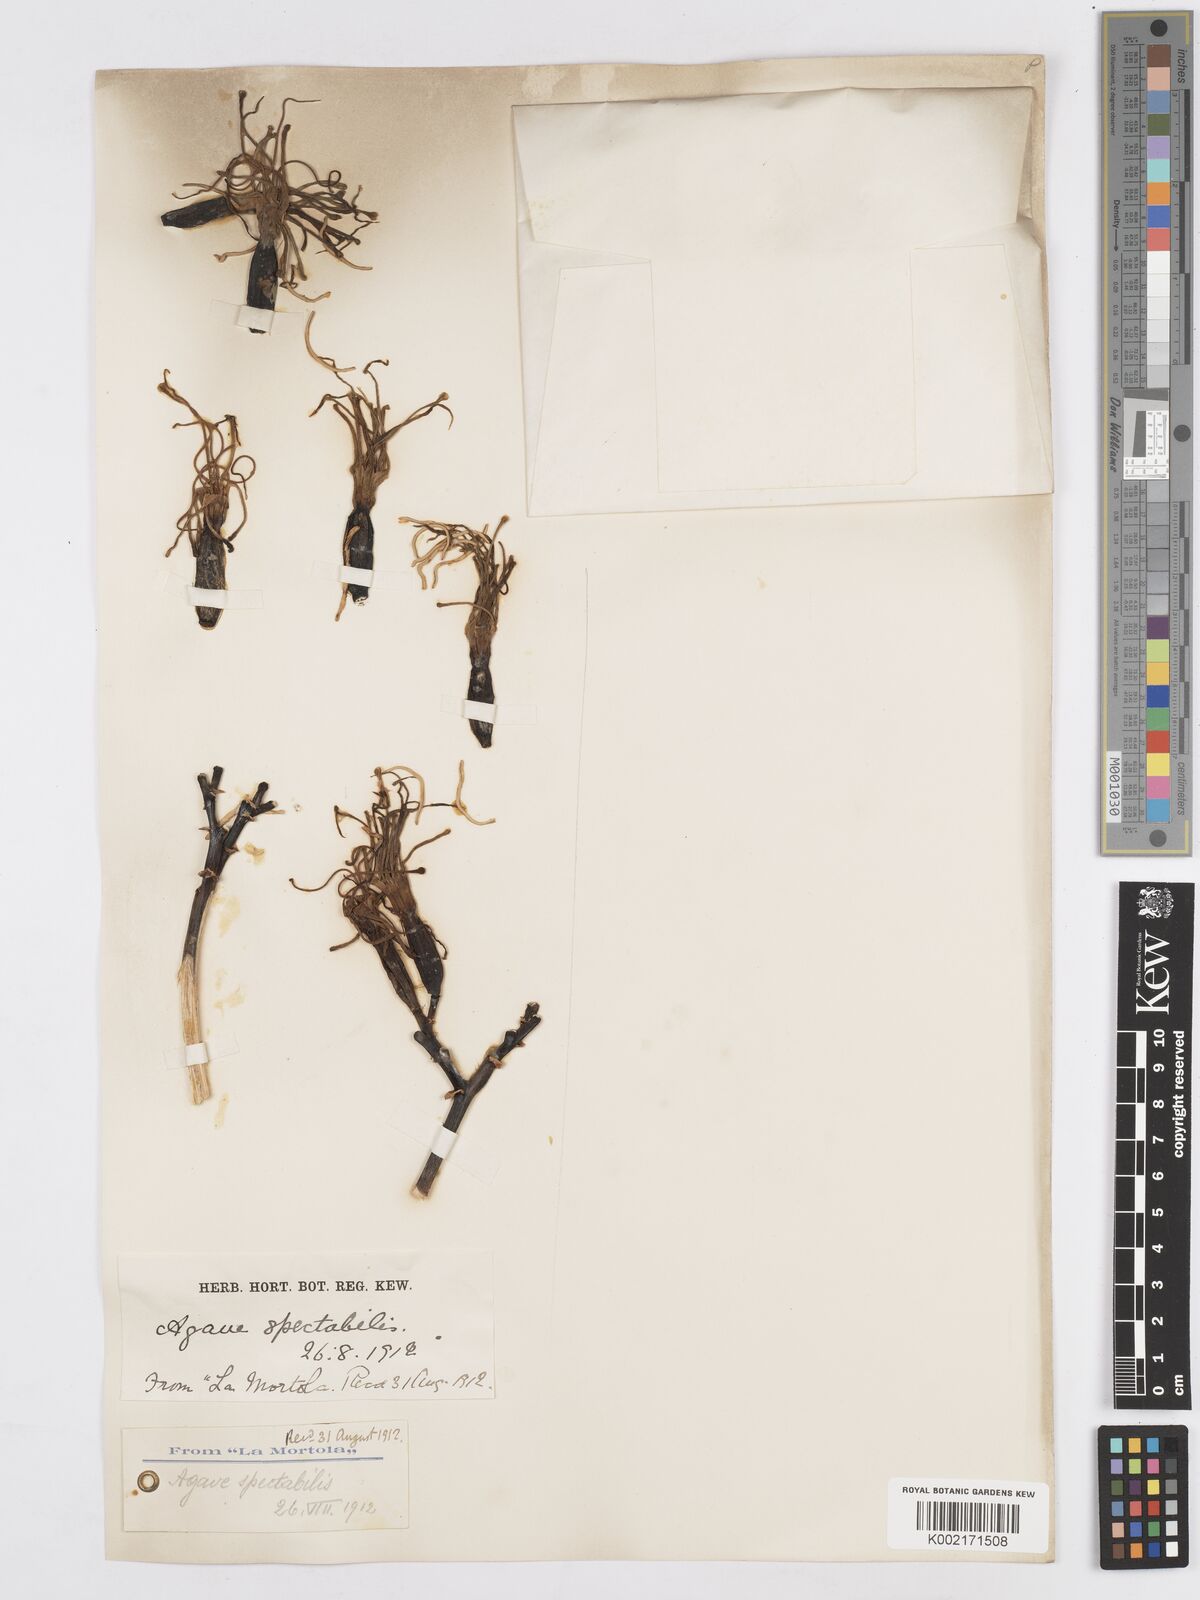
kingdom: Plantae
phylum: Tracheophyta
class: Liliopsida
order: Asparagales
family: Asparagaceae
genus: Agave
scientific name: Agave angustifolia
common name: Mescal agave
